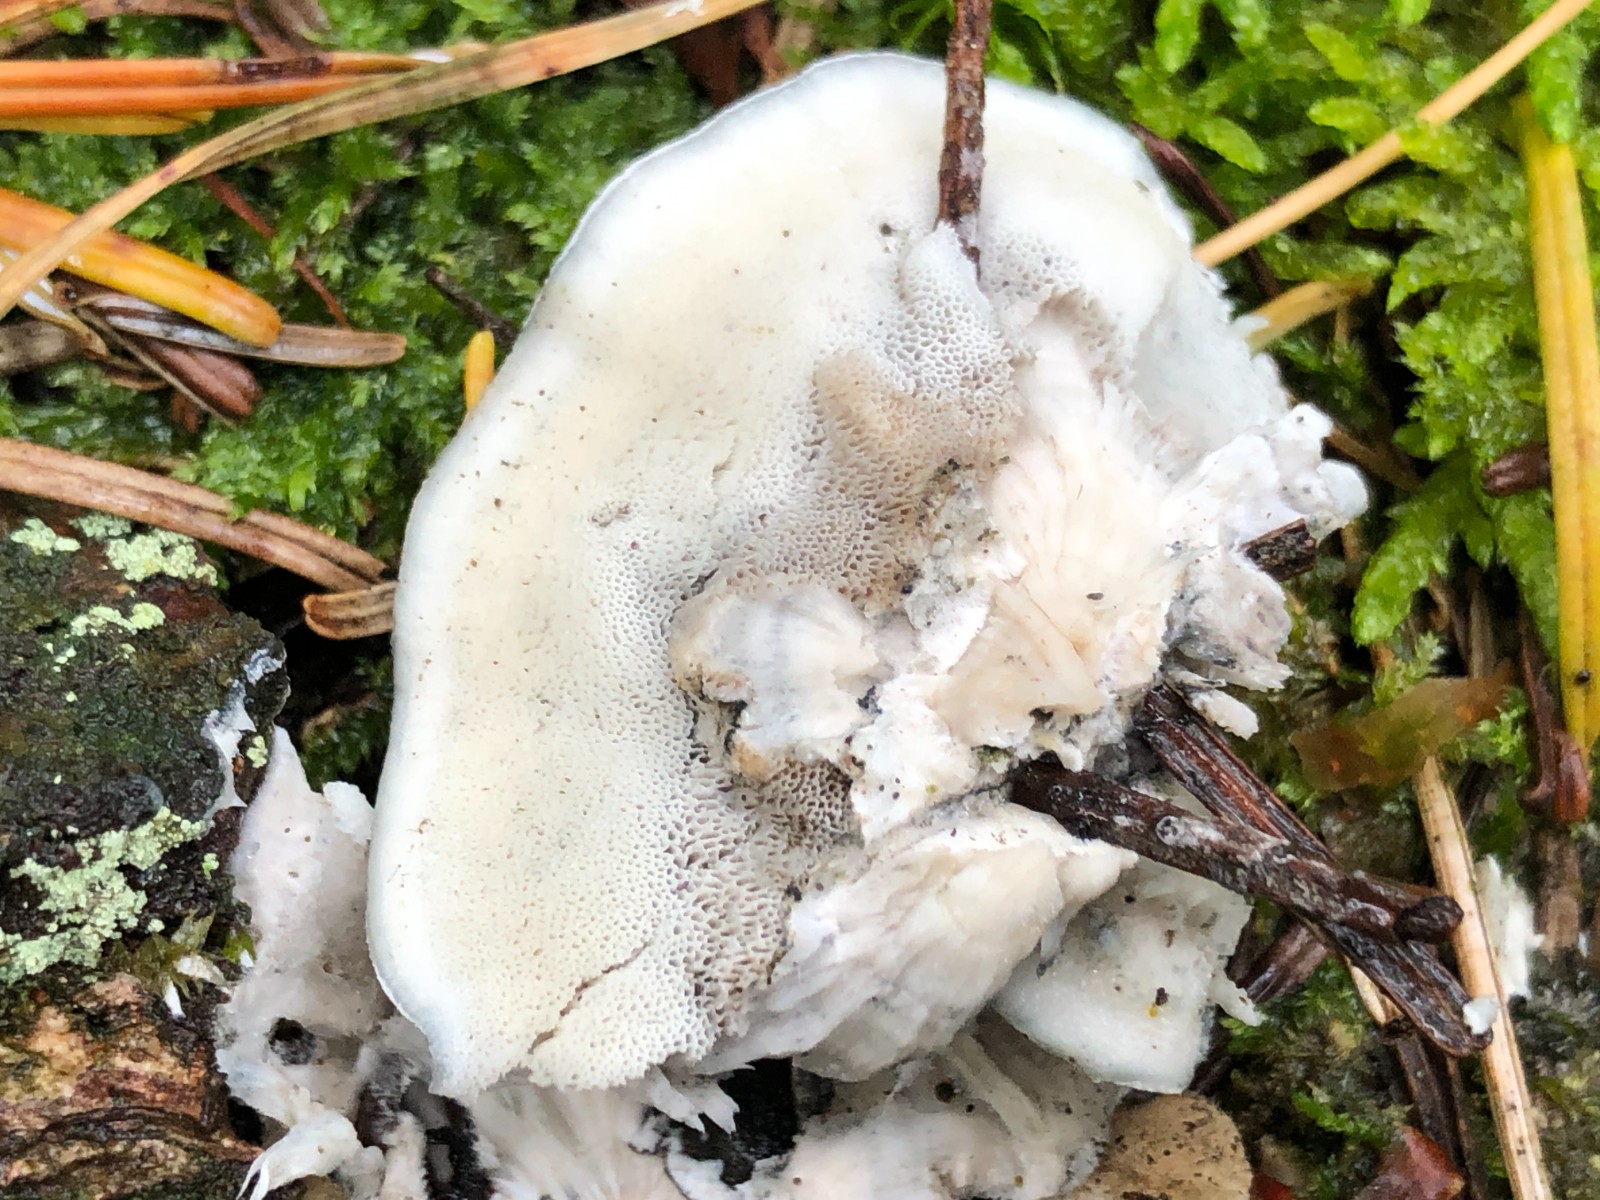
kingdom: Fungi
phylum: Basidiomycota
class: Agaricomycetes
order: Polyporales
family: Polyporaceae
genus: Cyanosporus
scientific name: Cyanosporus caesius
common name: blålig kødporesvamp
